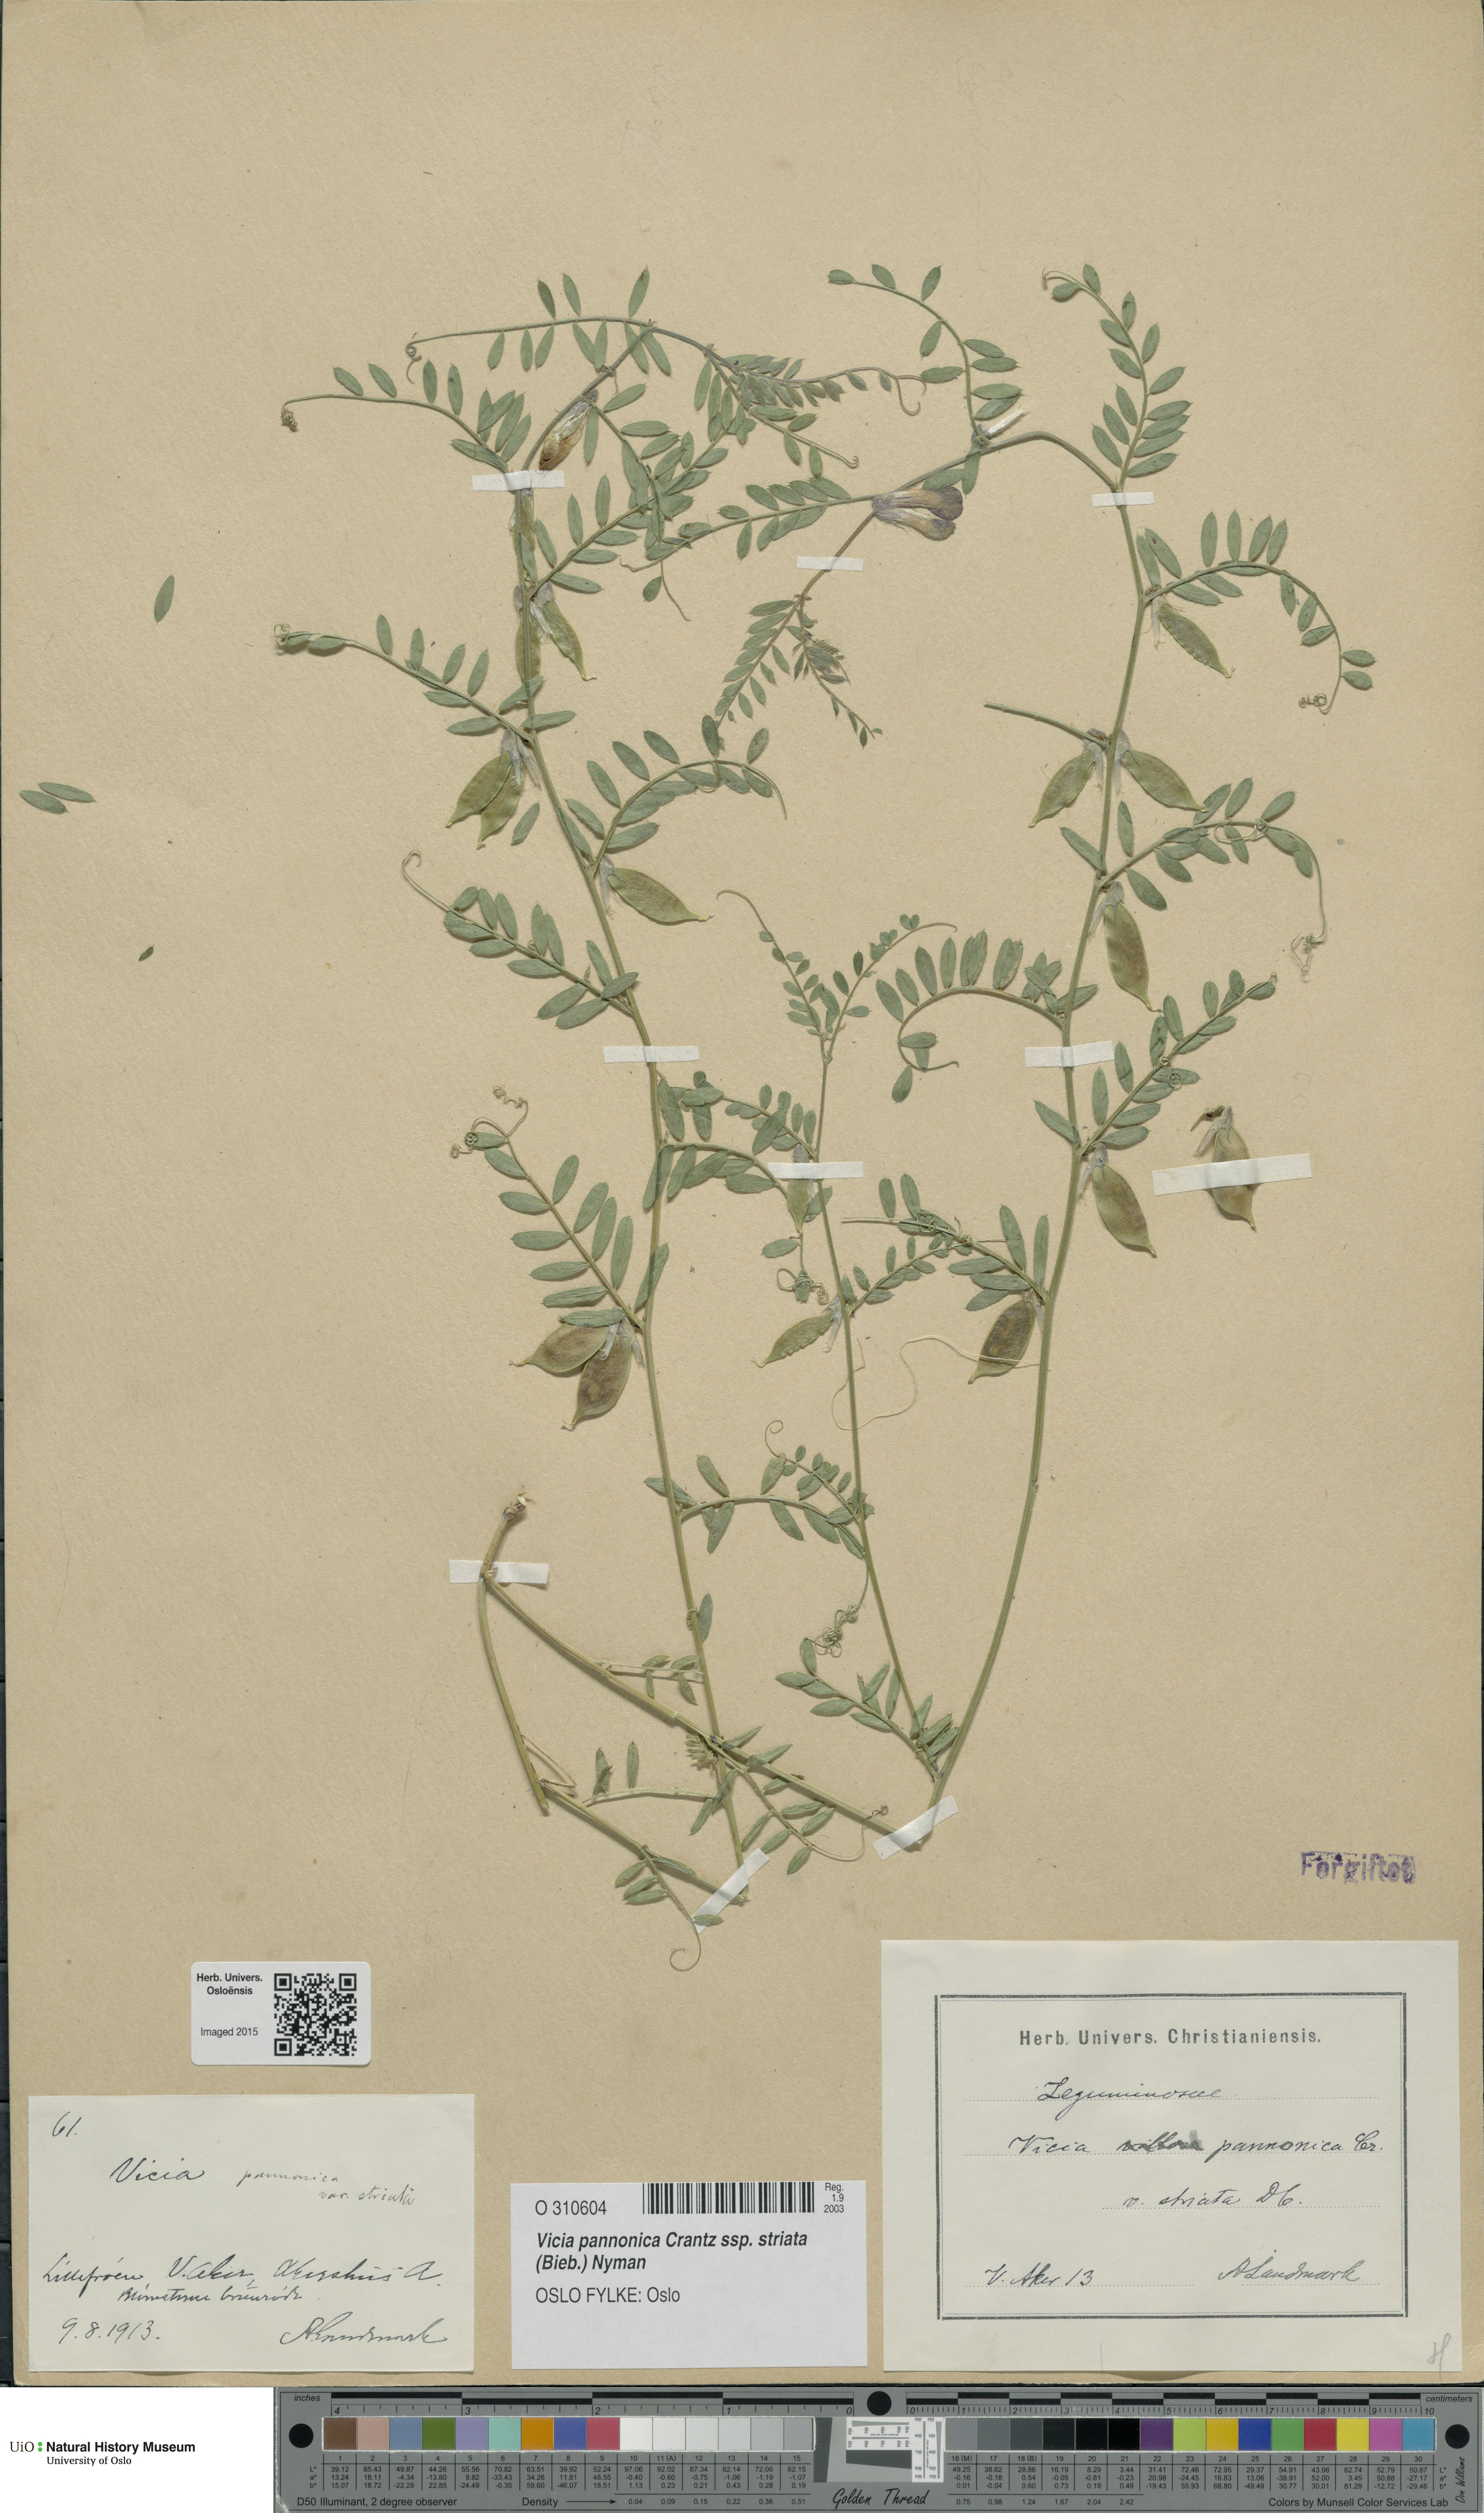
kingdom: Plantae
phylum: Tracheophyta
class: Magnoliopsida
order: Fabales
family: Fabaceae
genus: Vicia
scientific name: Vicia pannonica
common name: Hungarian vetch
